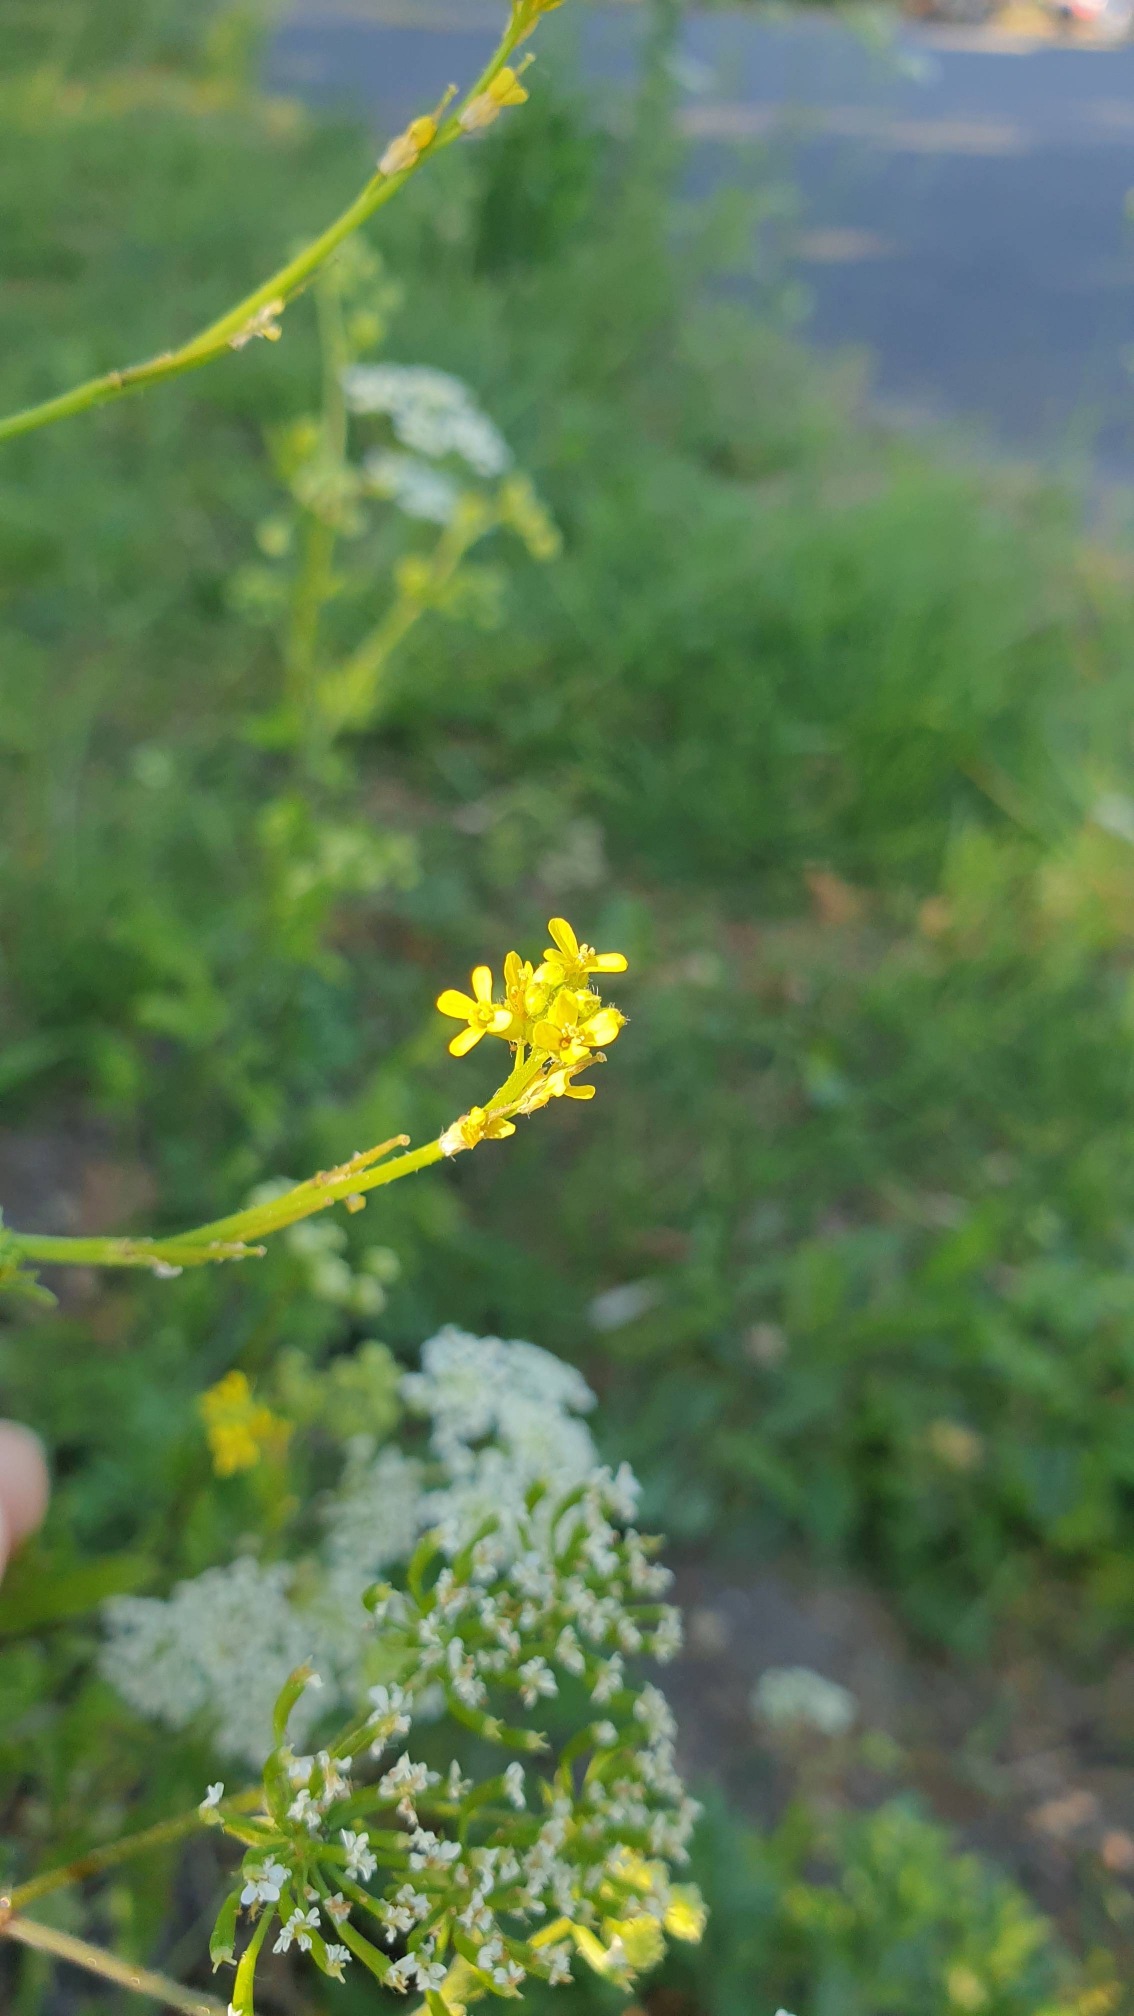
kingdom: Plantae
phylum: Tracheophyta
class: Magnoliopsida
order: Brassicales
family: Brassicaceae
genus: Sisymbrium
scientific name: Sisymbrium officinale
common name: Rank vejsennep
